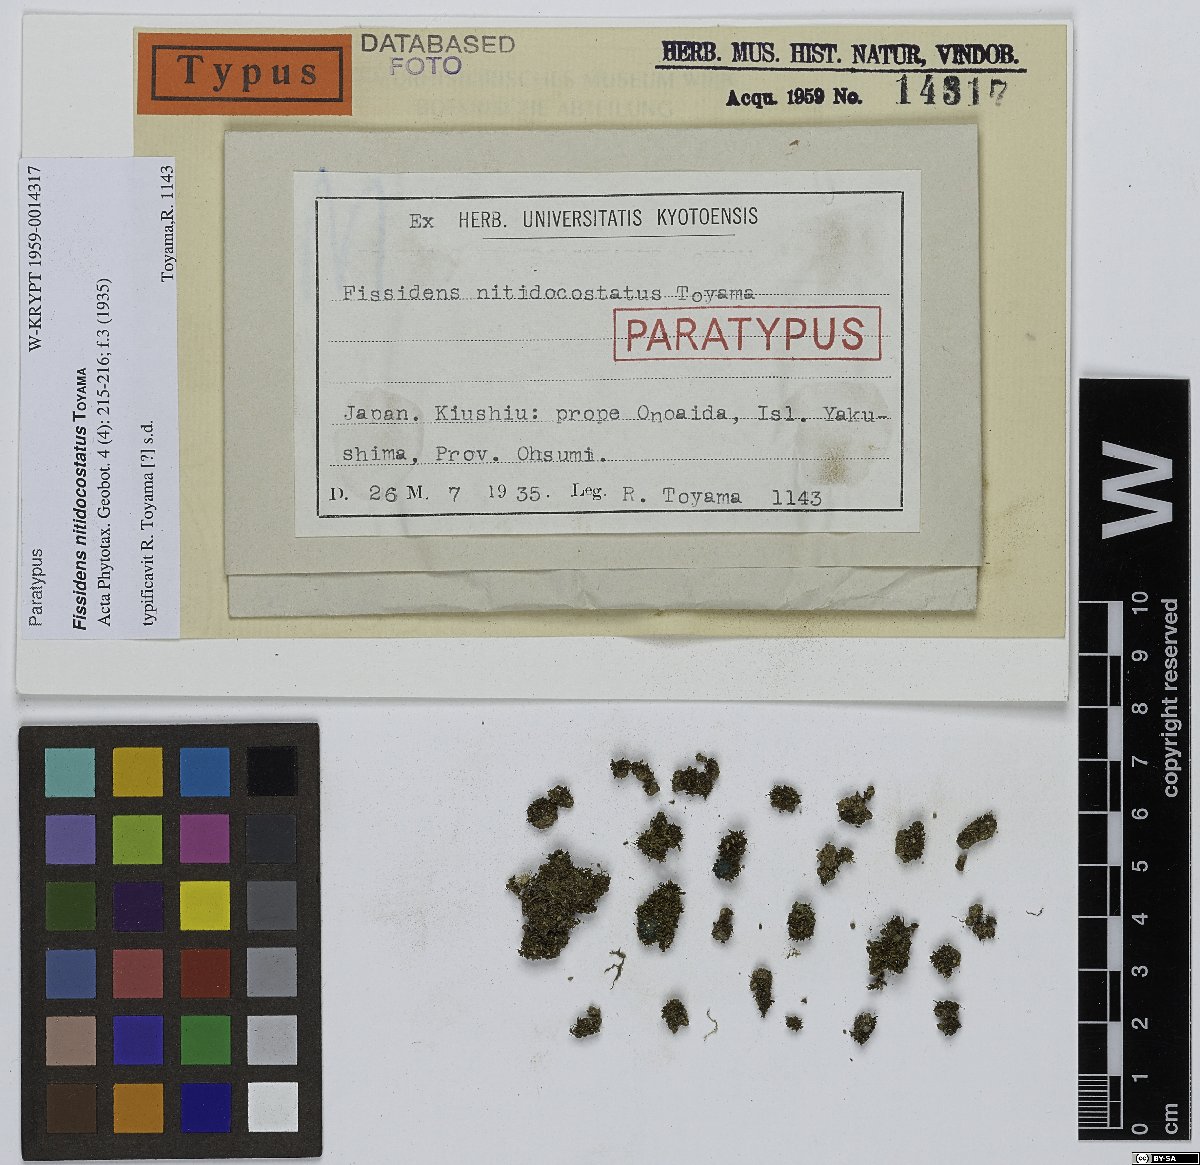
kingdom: Plantae
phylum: Bryophyta
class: Bryopsida
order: Dicranales
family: Fissidentaceae
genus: Fissidens
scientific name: Fissidens linearis
